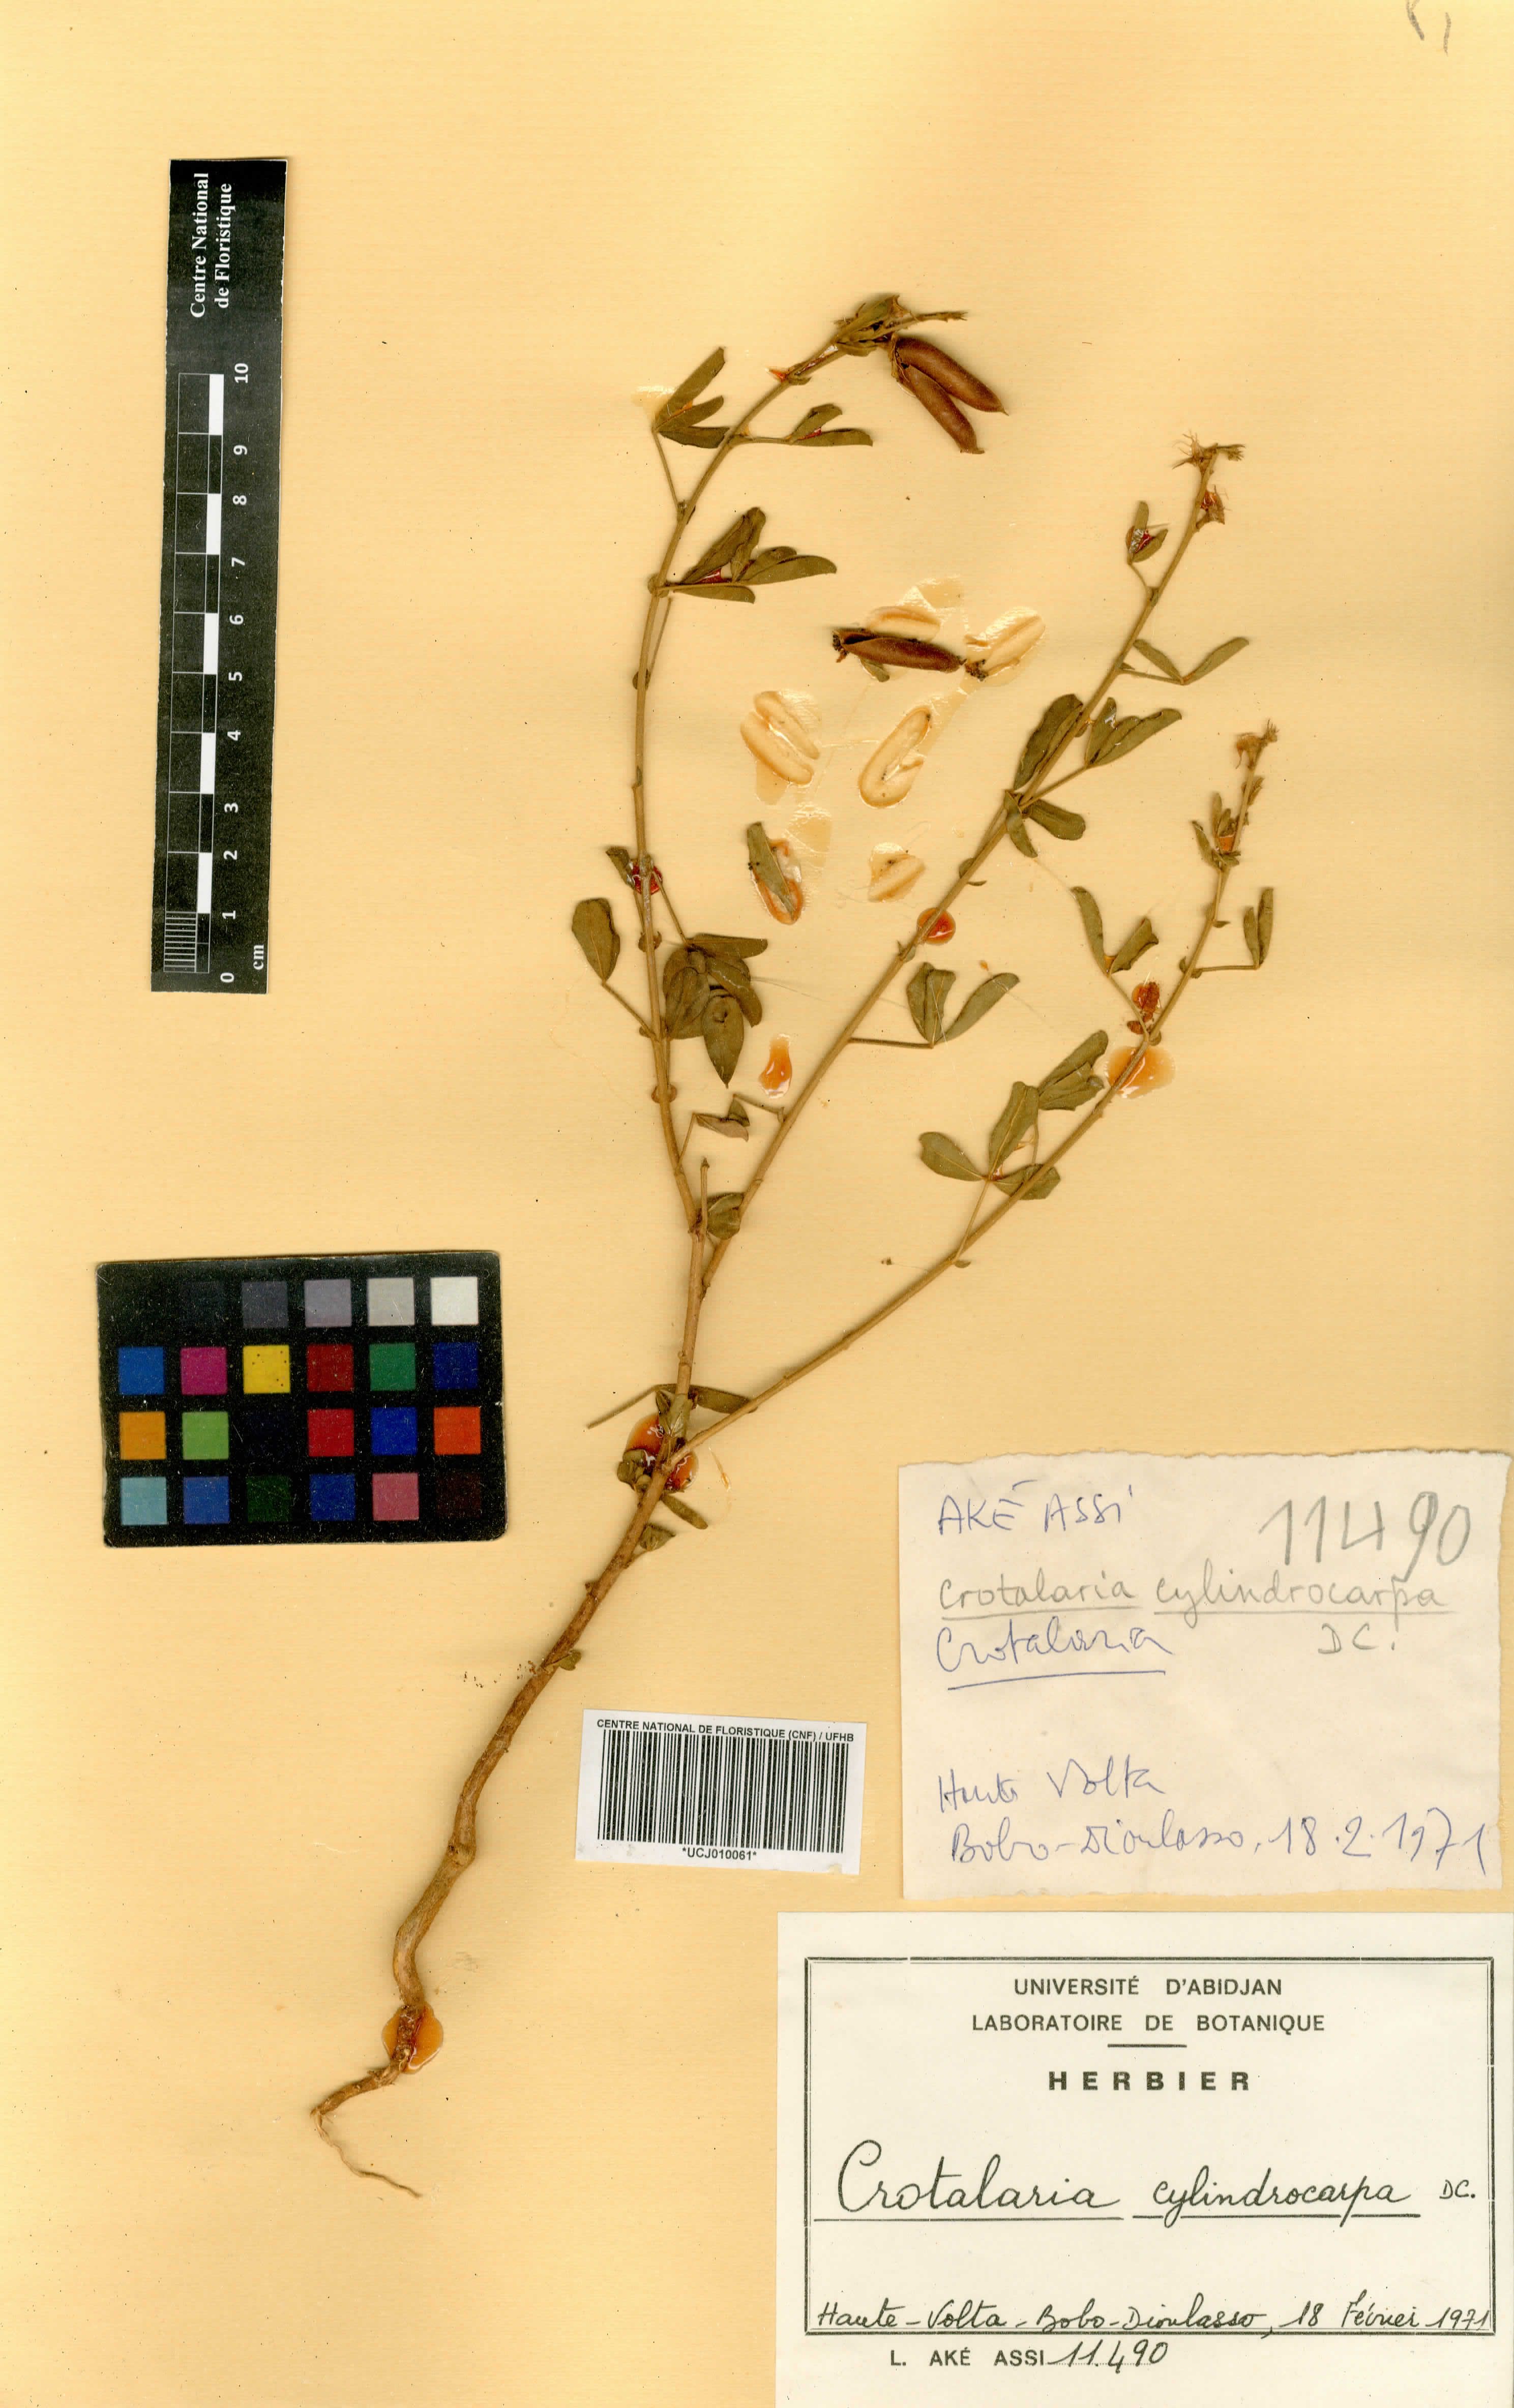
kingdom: Plantae
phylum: Tracheophyta
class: Magnoliopsida
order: Fabales
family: Fabaceae
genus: Crotalaria
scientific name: Crotalaria cylindrocarpa
